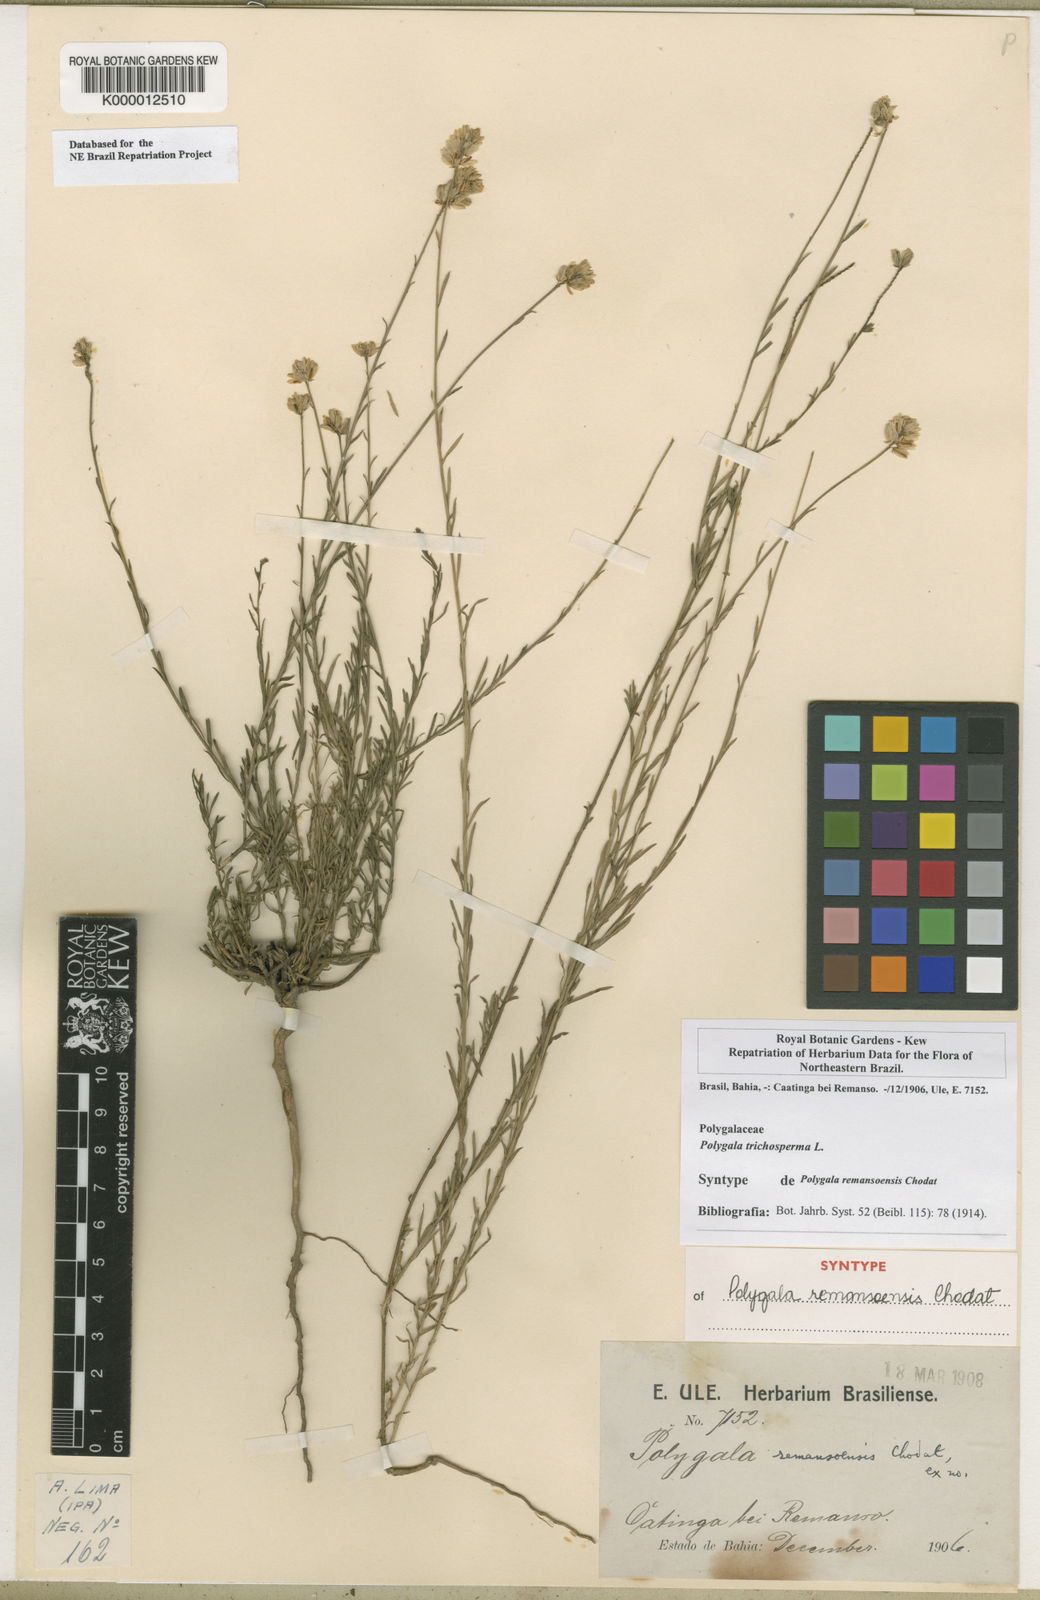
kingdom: Plantae
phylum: Tracheophyta
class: Magnoliopsida
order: Fabales
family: Polygalaceae
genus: Polygala
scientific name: Polygala
